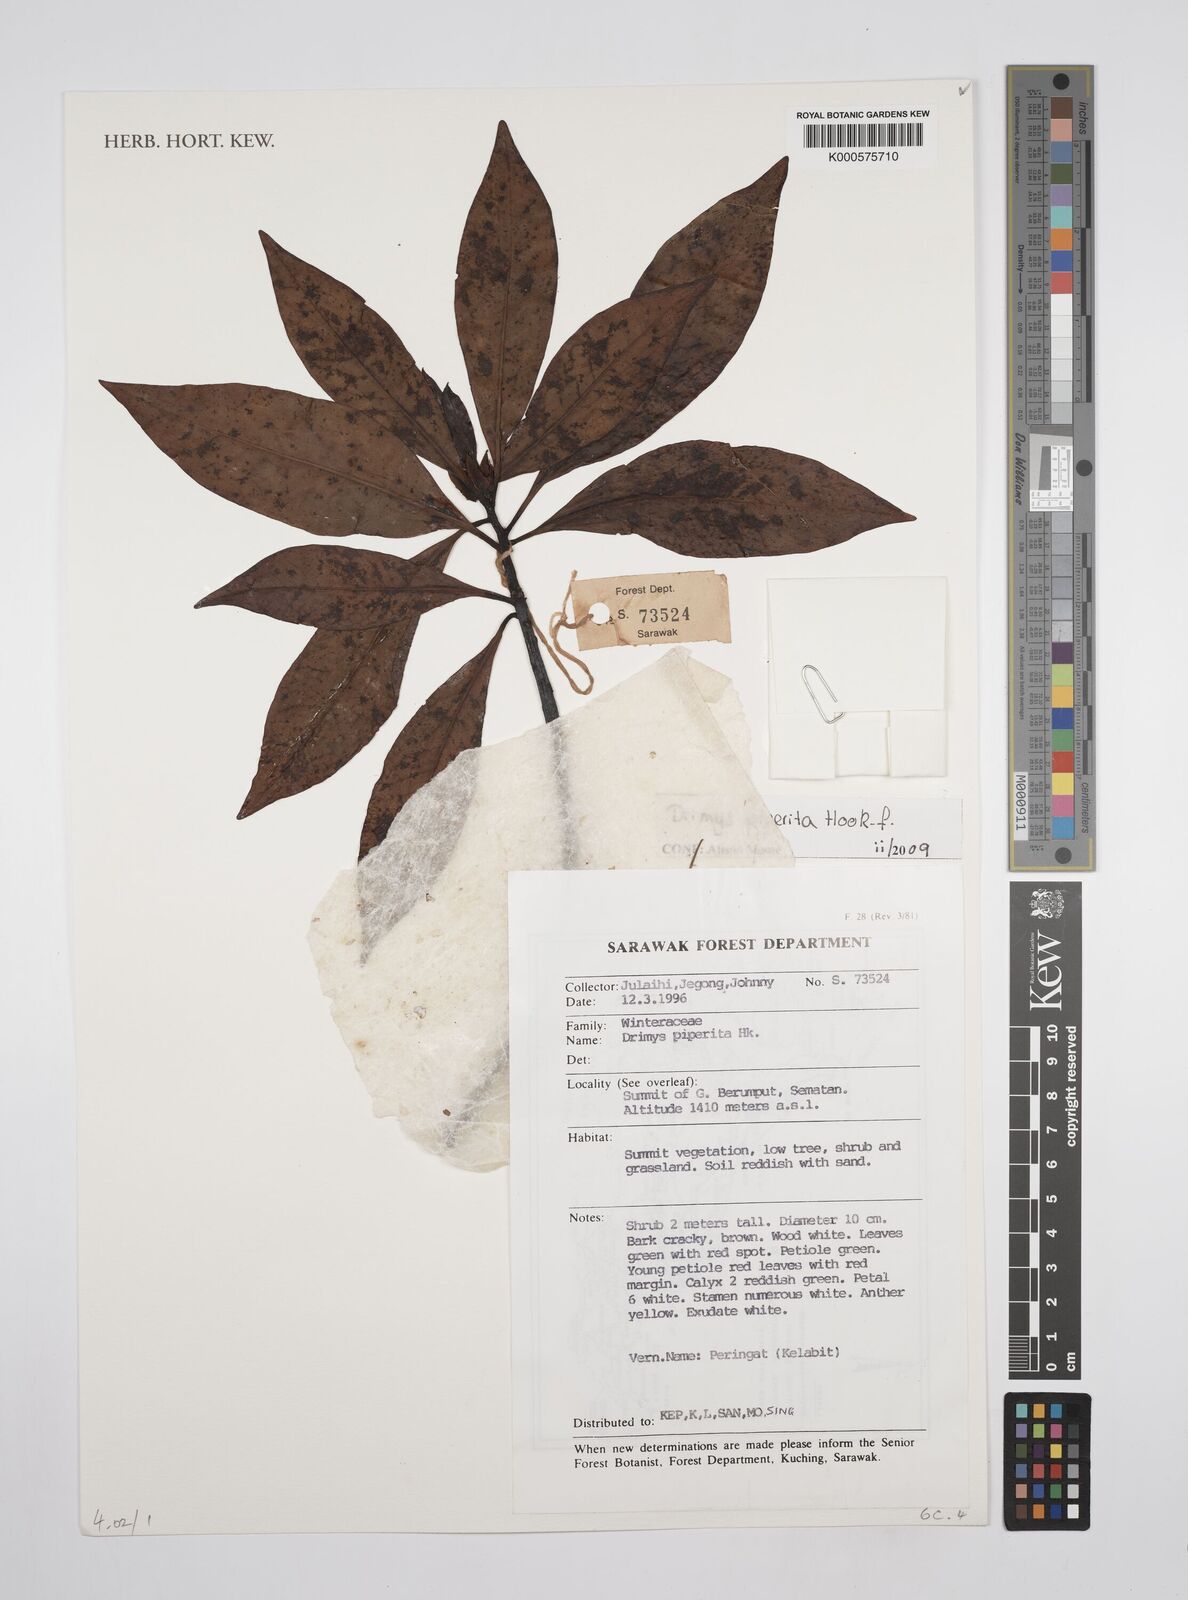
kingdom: Plantae
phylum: Tracheophyta
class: Magnoliopsida
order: Canellales
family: Winteraceae
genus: Drimys
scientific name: Drimys piperita
